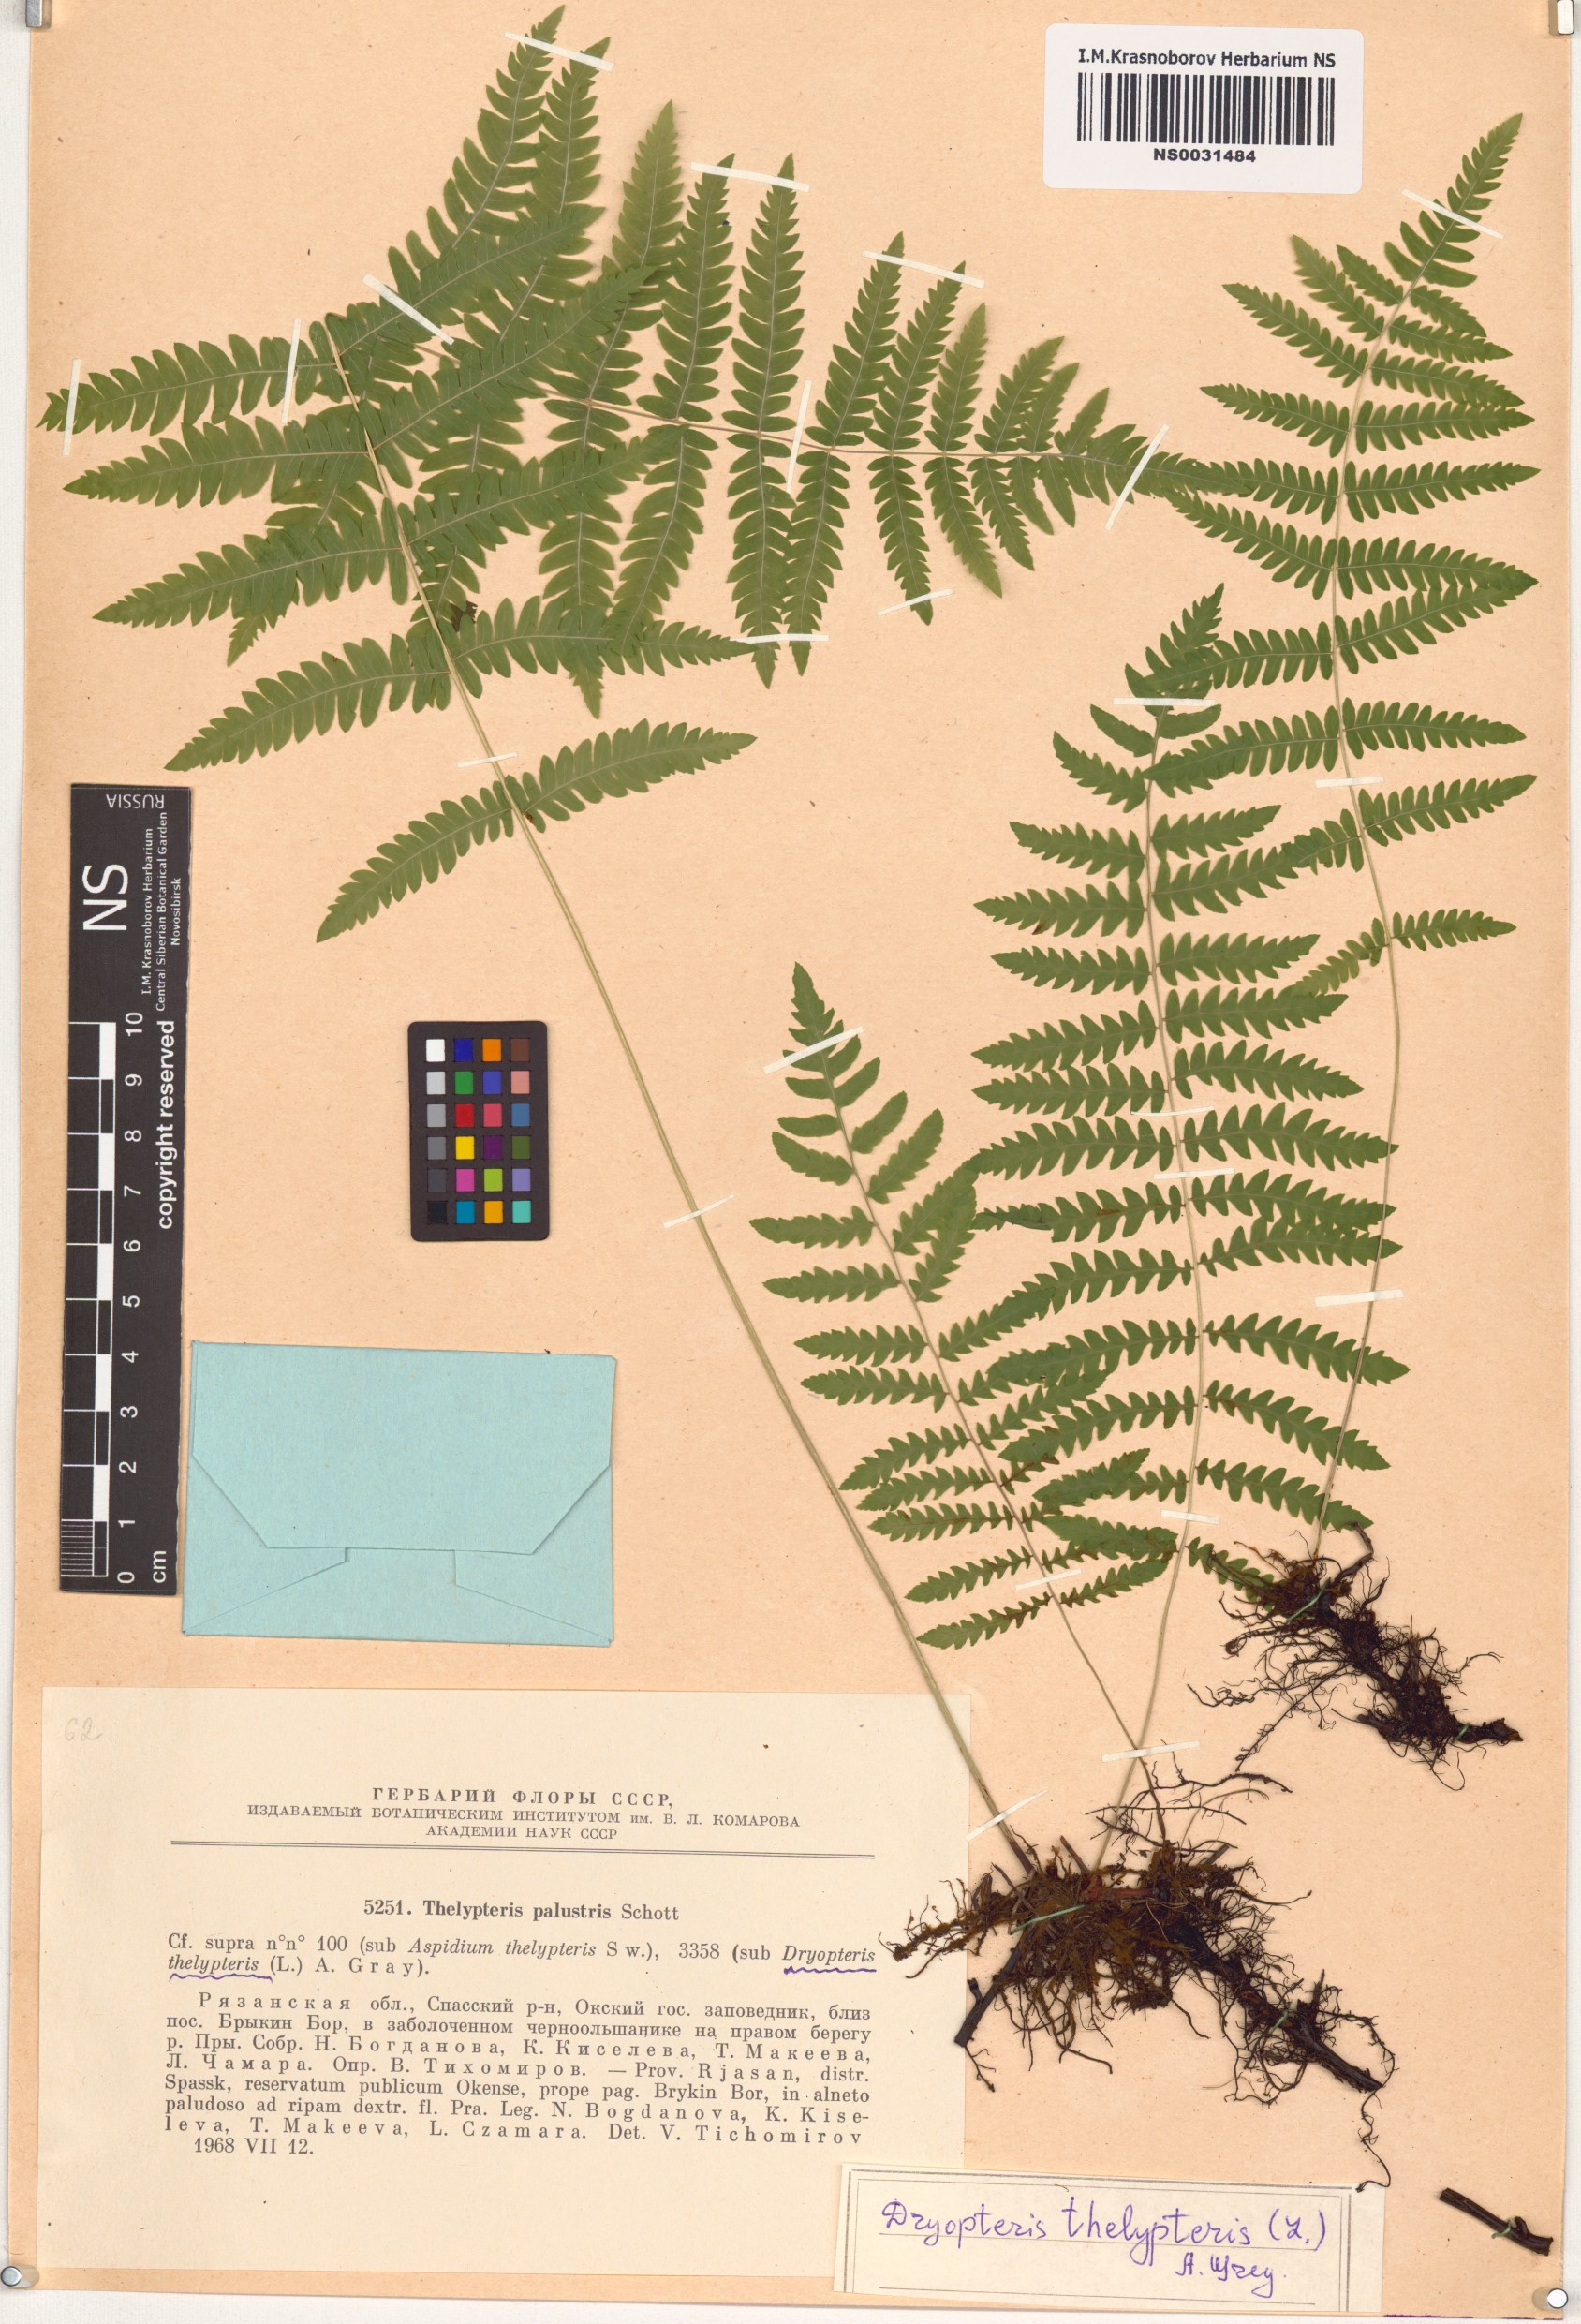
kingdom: Plantae
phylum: Tracheophyta
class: Polypodiopsida
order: Polypodiales
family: Thelypteridaceae
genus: Thelypteris
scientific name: Thelypteris palustris
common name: Marsh fern
